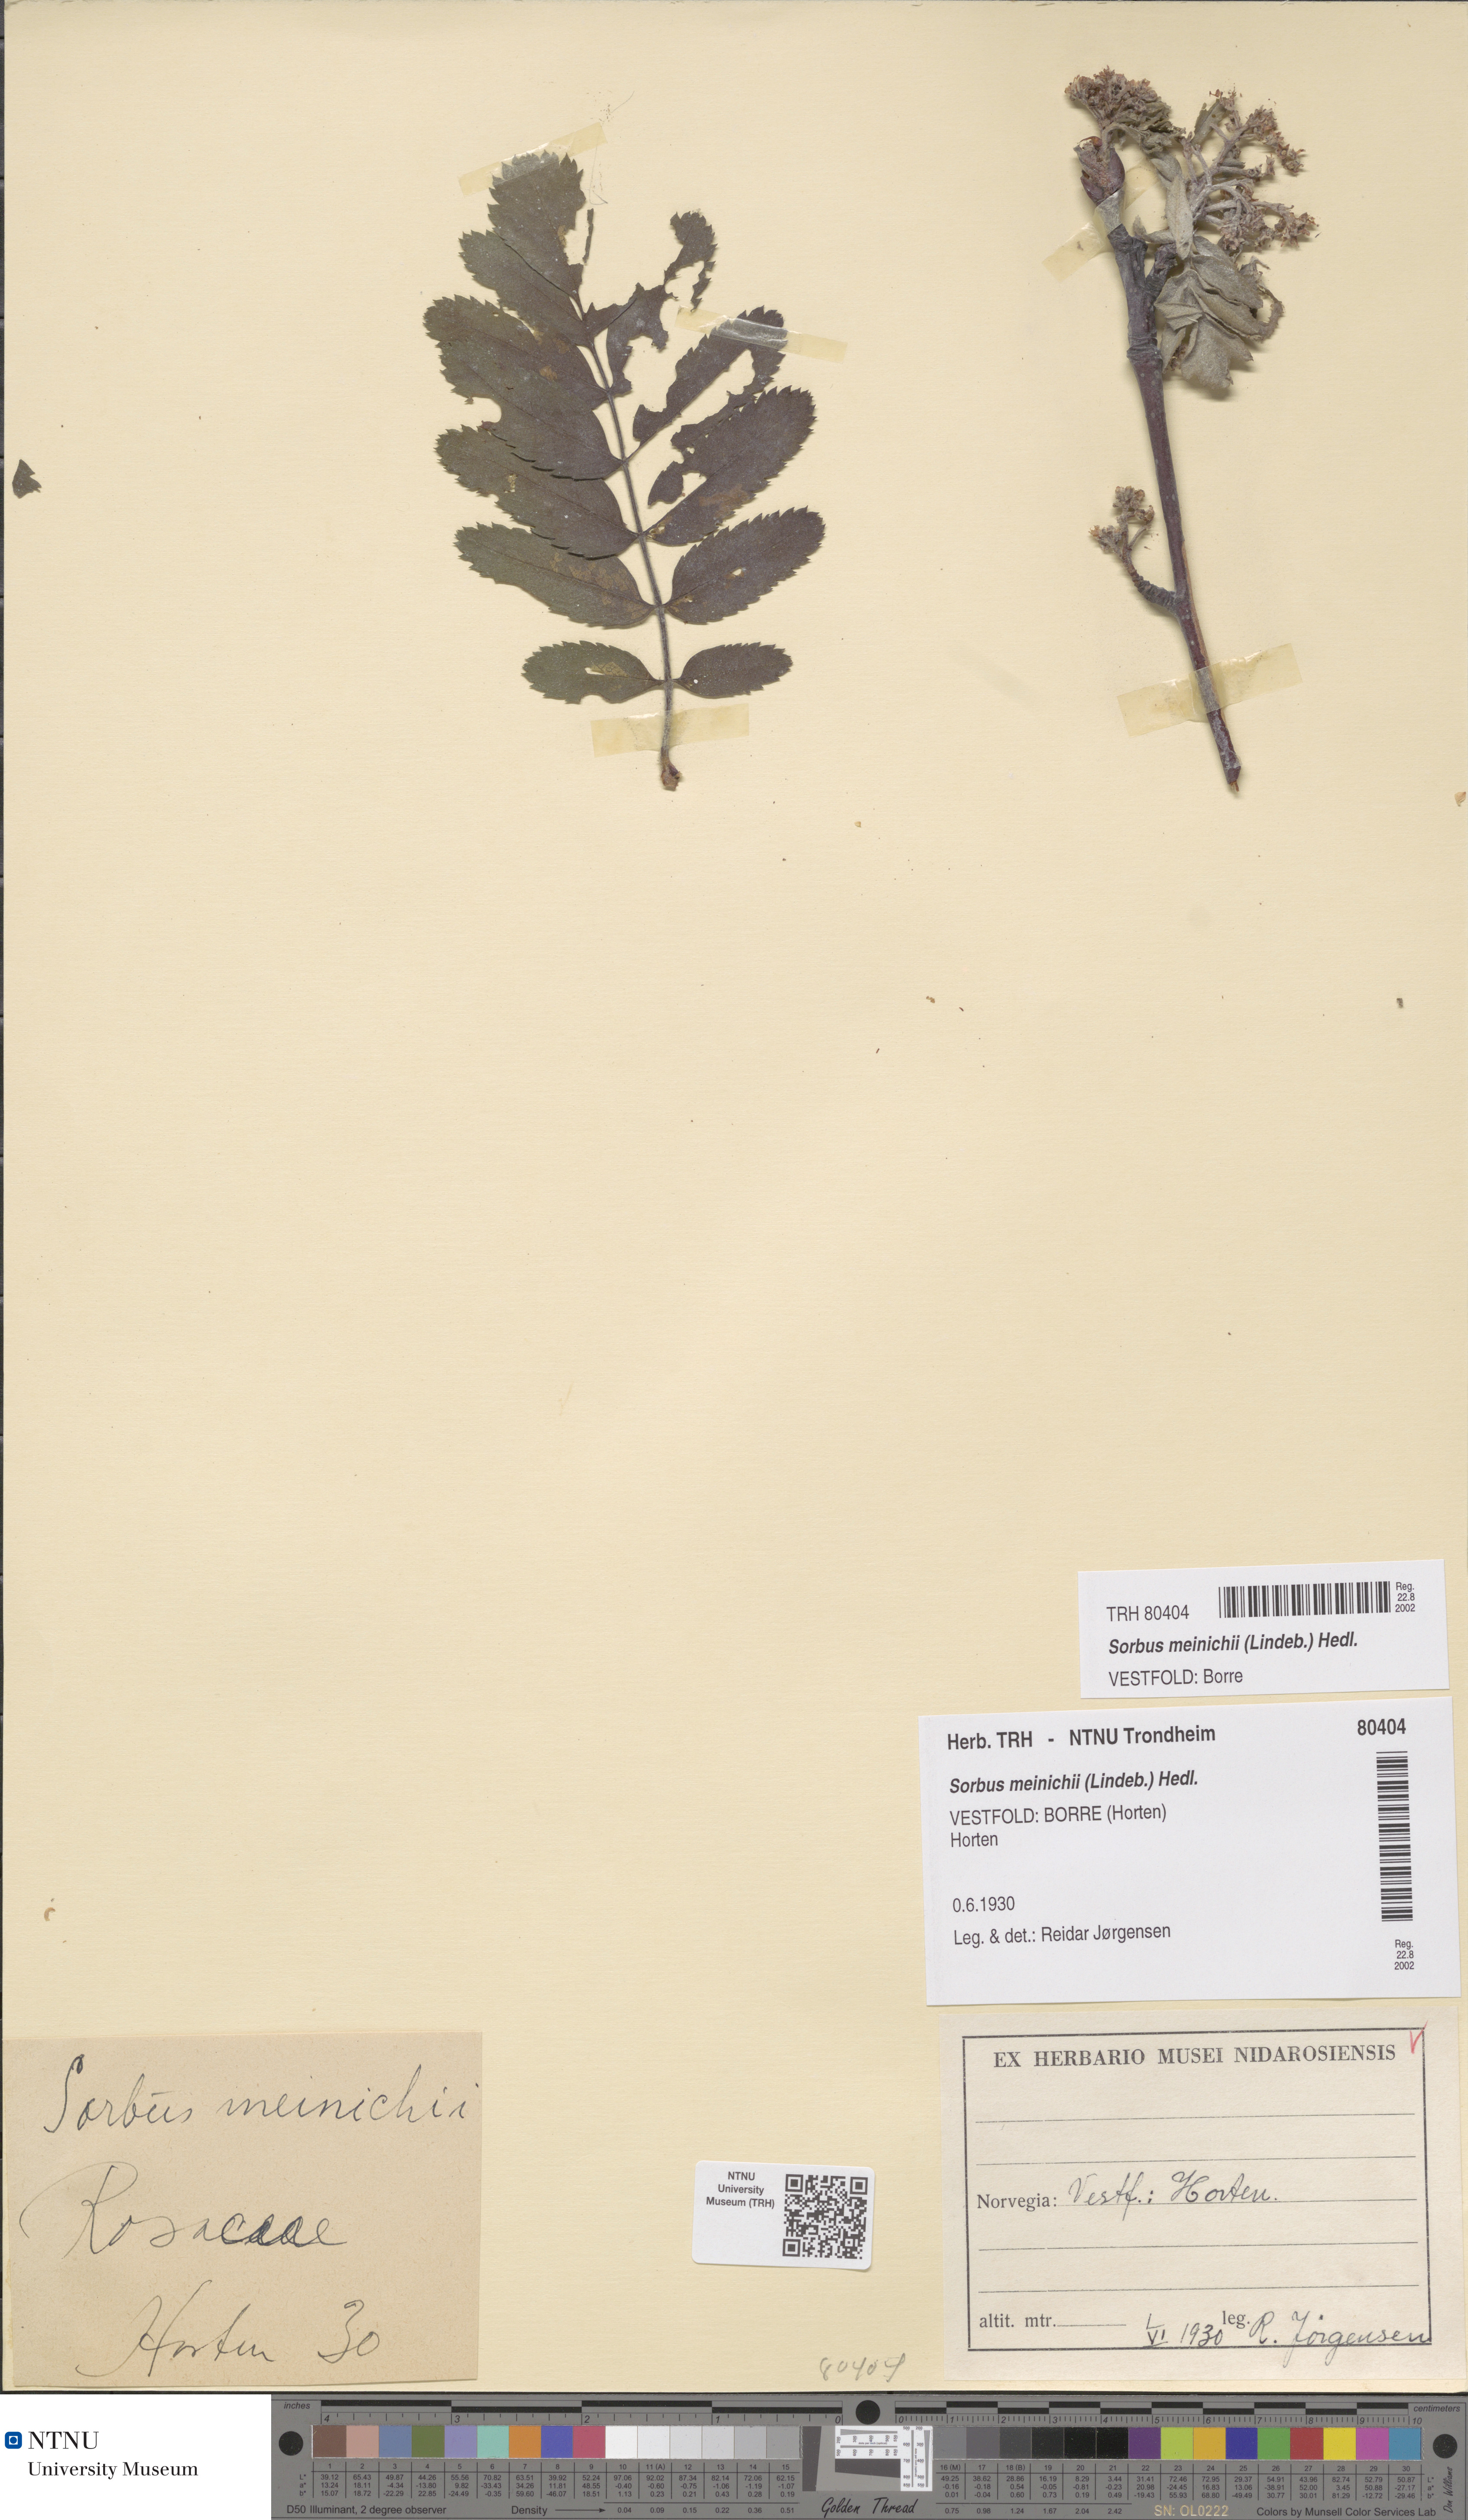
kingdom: Plantae
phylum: Tracheophyta
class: Magnoliopsida
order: Rosales
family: Rosaceae
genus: Hedlundia
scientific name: Hedlundia meinichii
